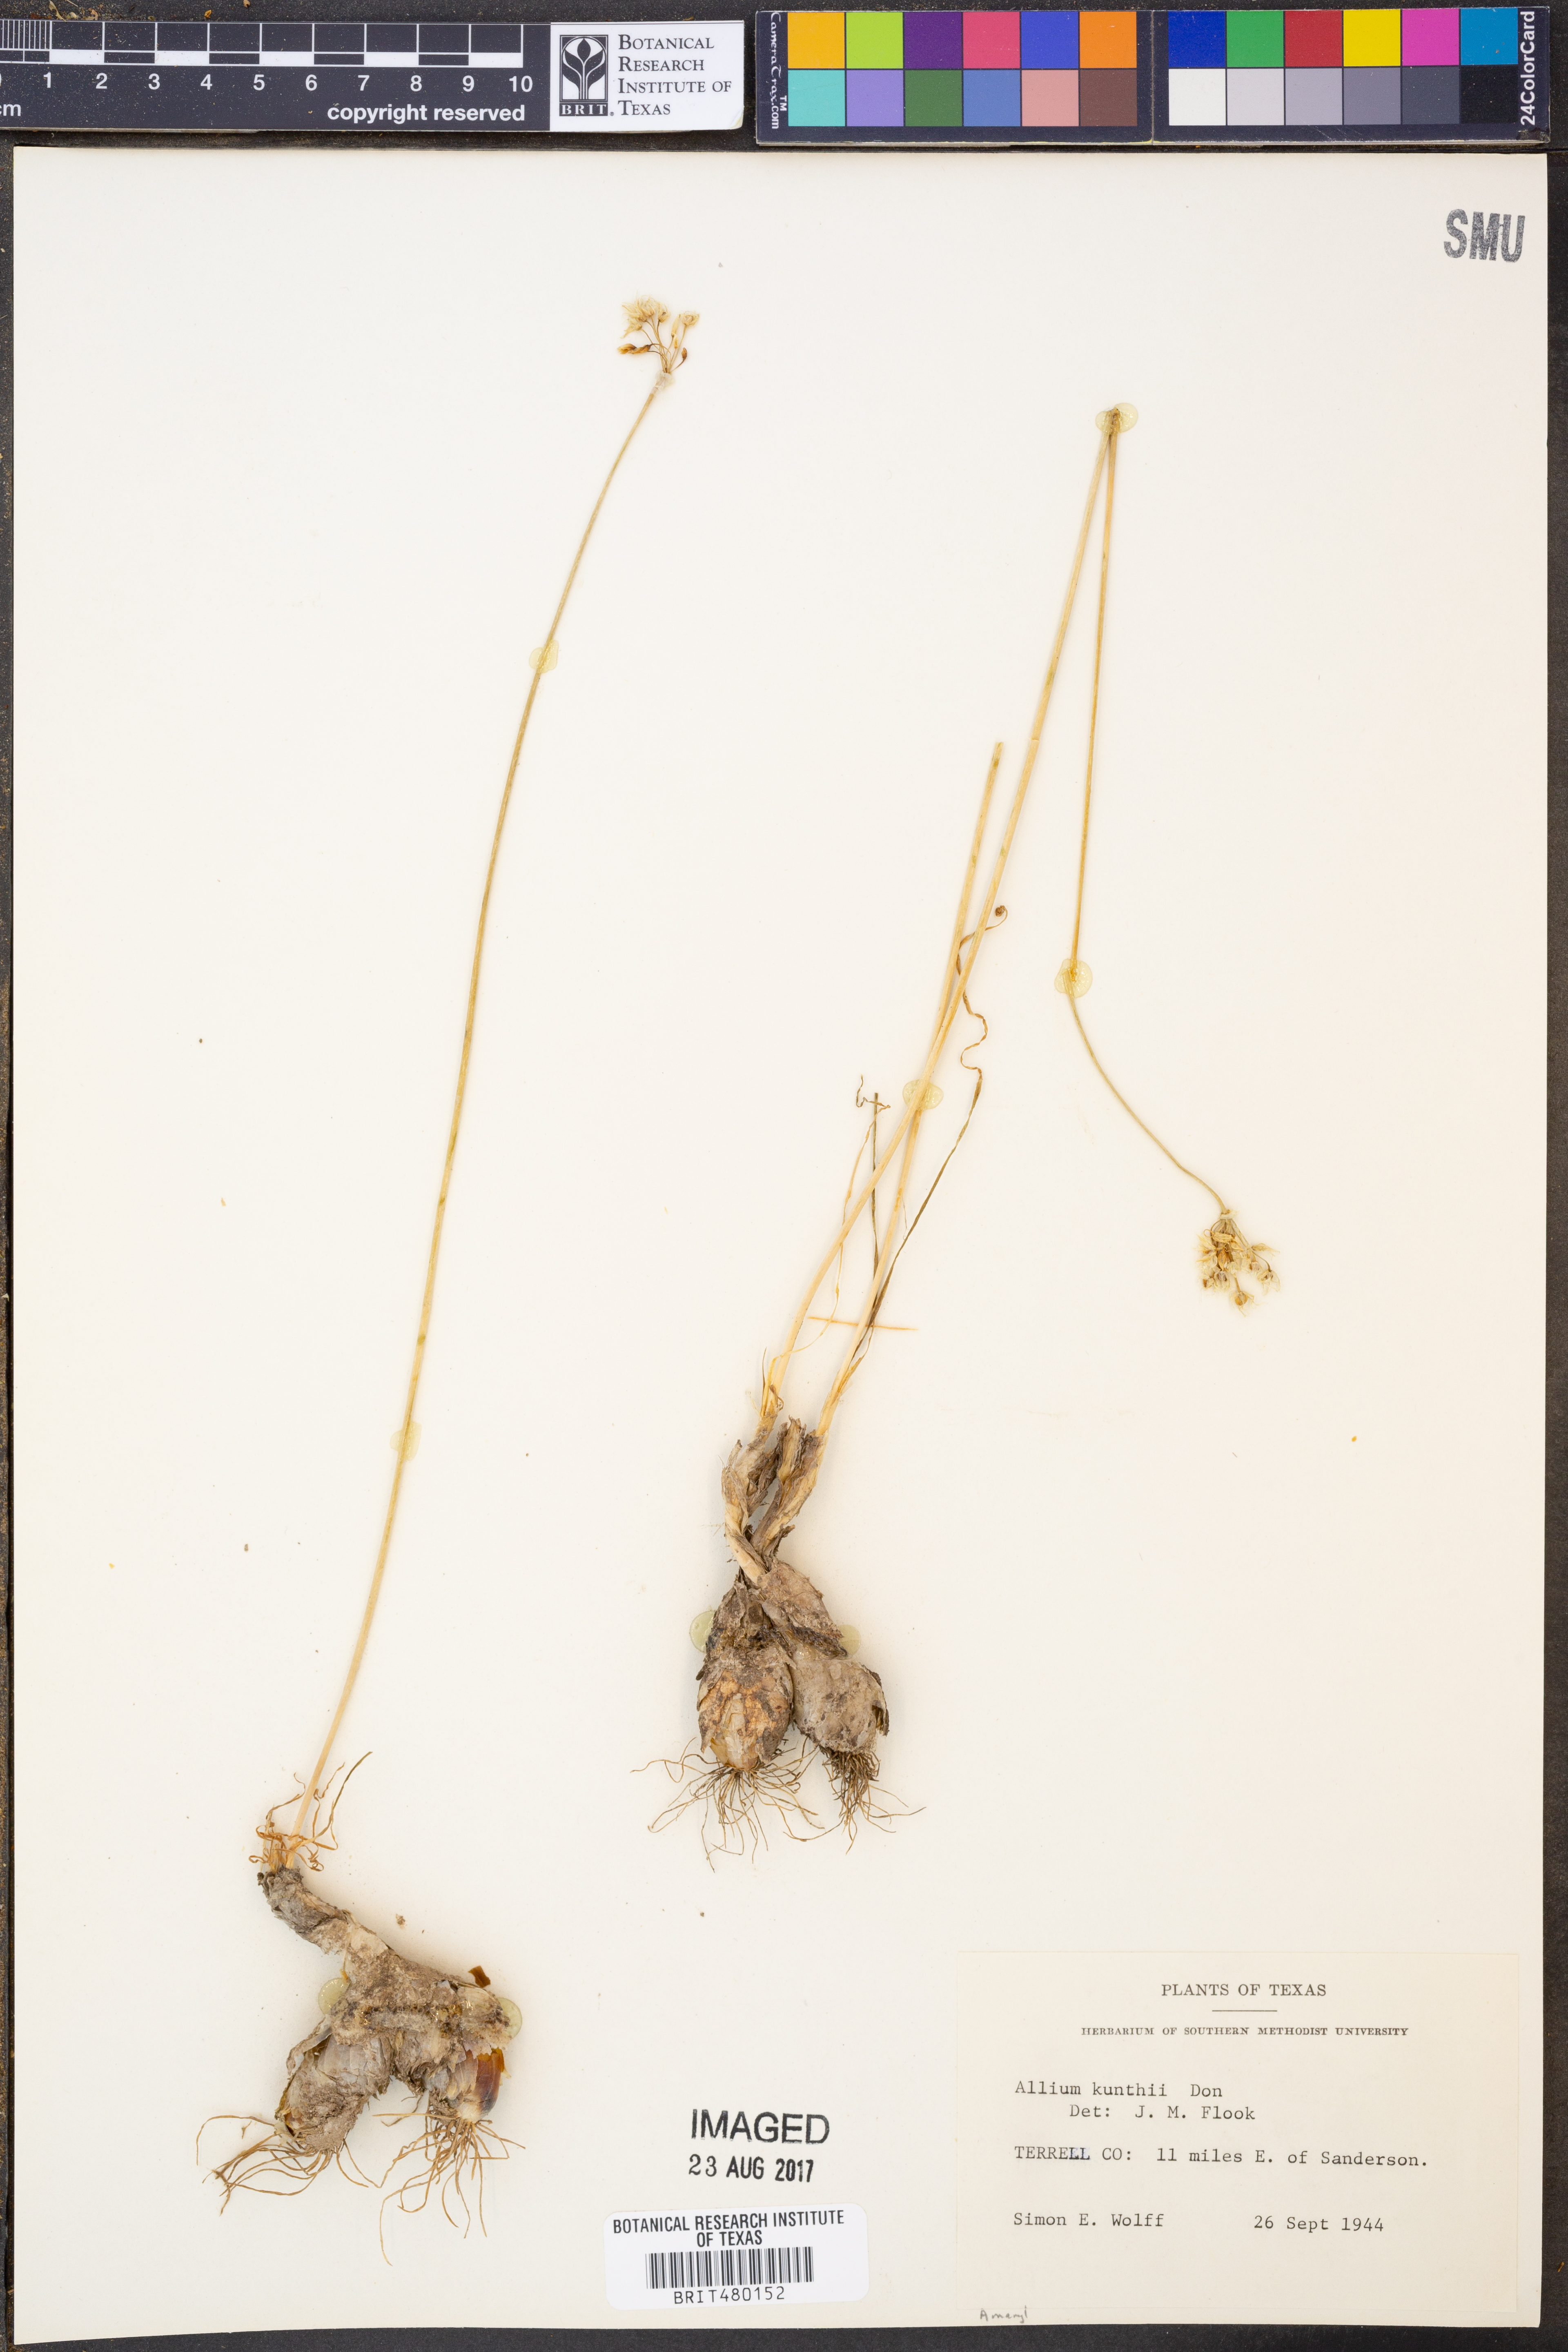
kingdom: Plantae
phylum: Tracheophyta
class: Liliopsida
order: Asparagales
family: Amaryllidaceae
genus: Allium
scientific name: Allium longifolium
